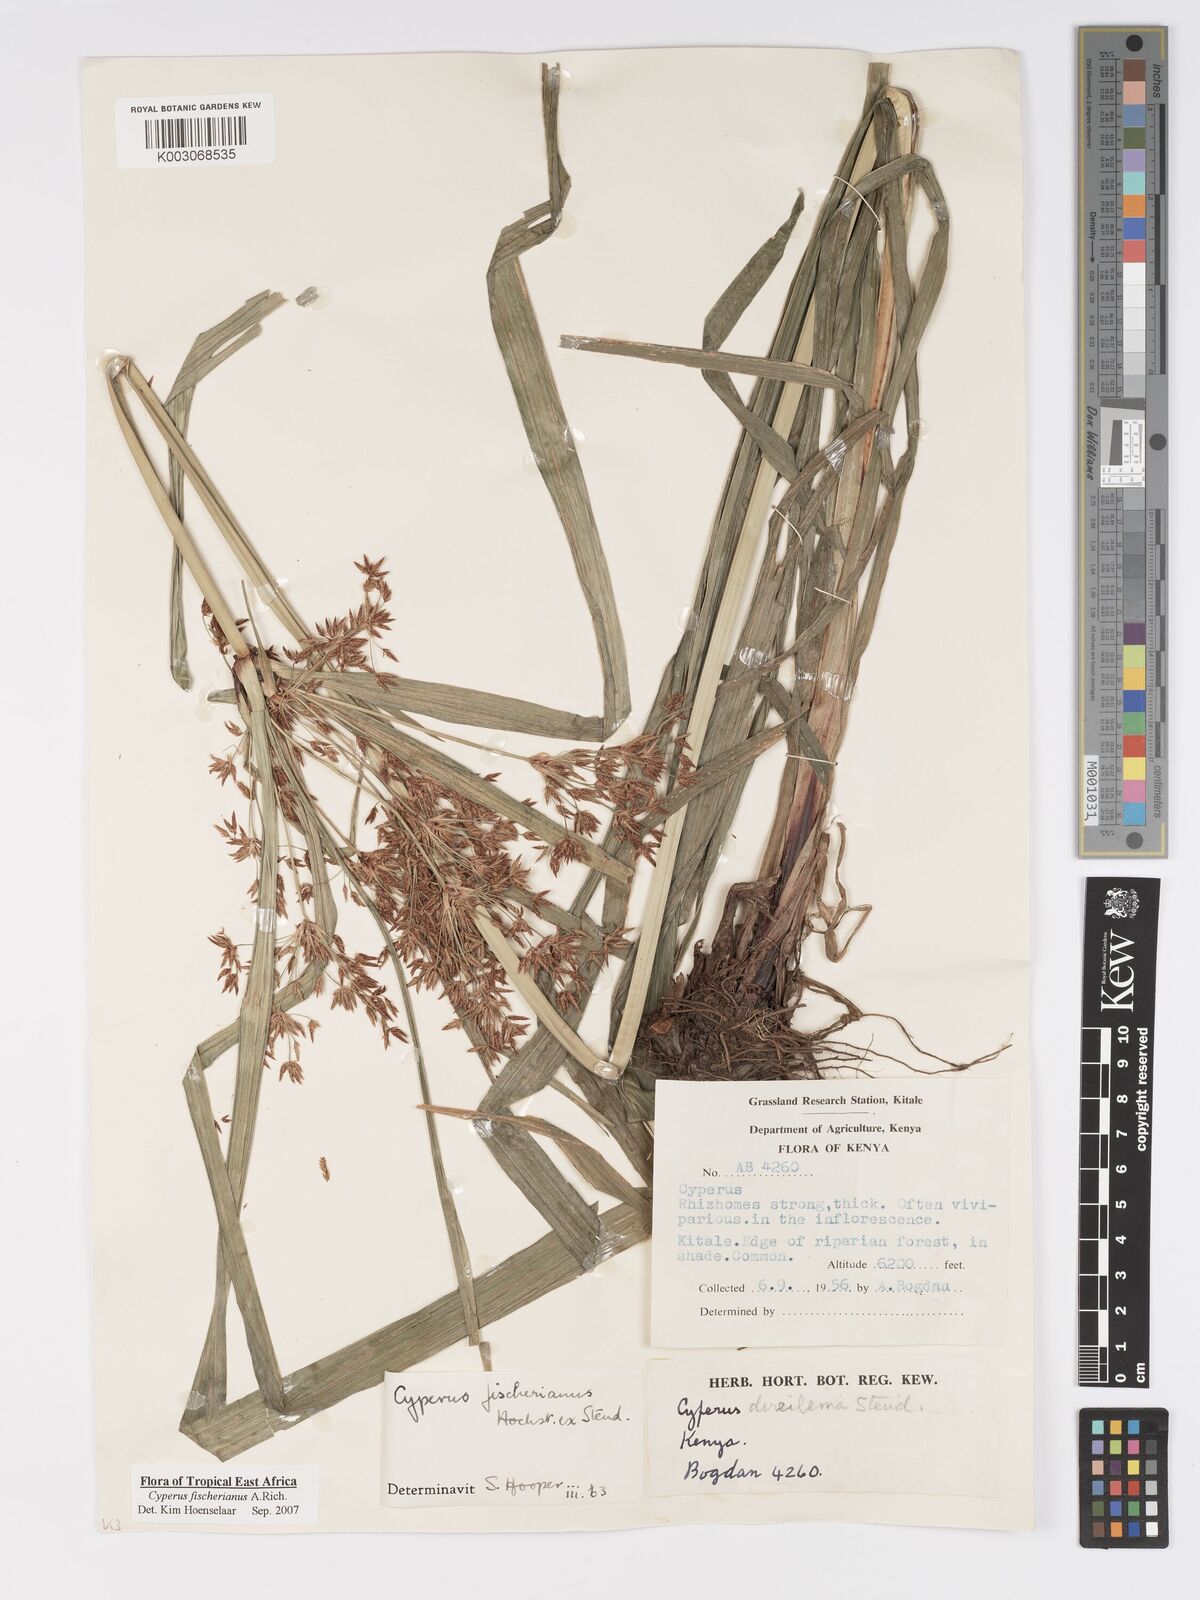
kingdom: Plantae
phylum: Tracheophyta
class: Liliopsida
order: Poales
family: Cyperaceae
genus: Cyperus
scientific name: Cyperus fischerianus
